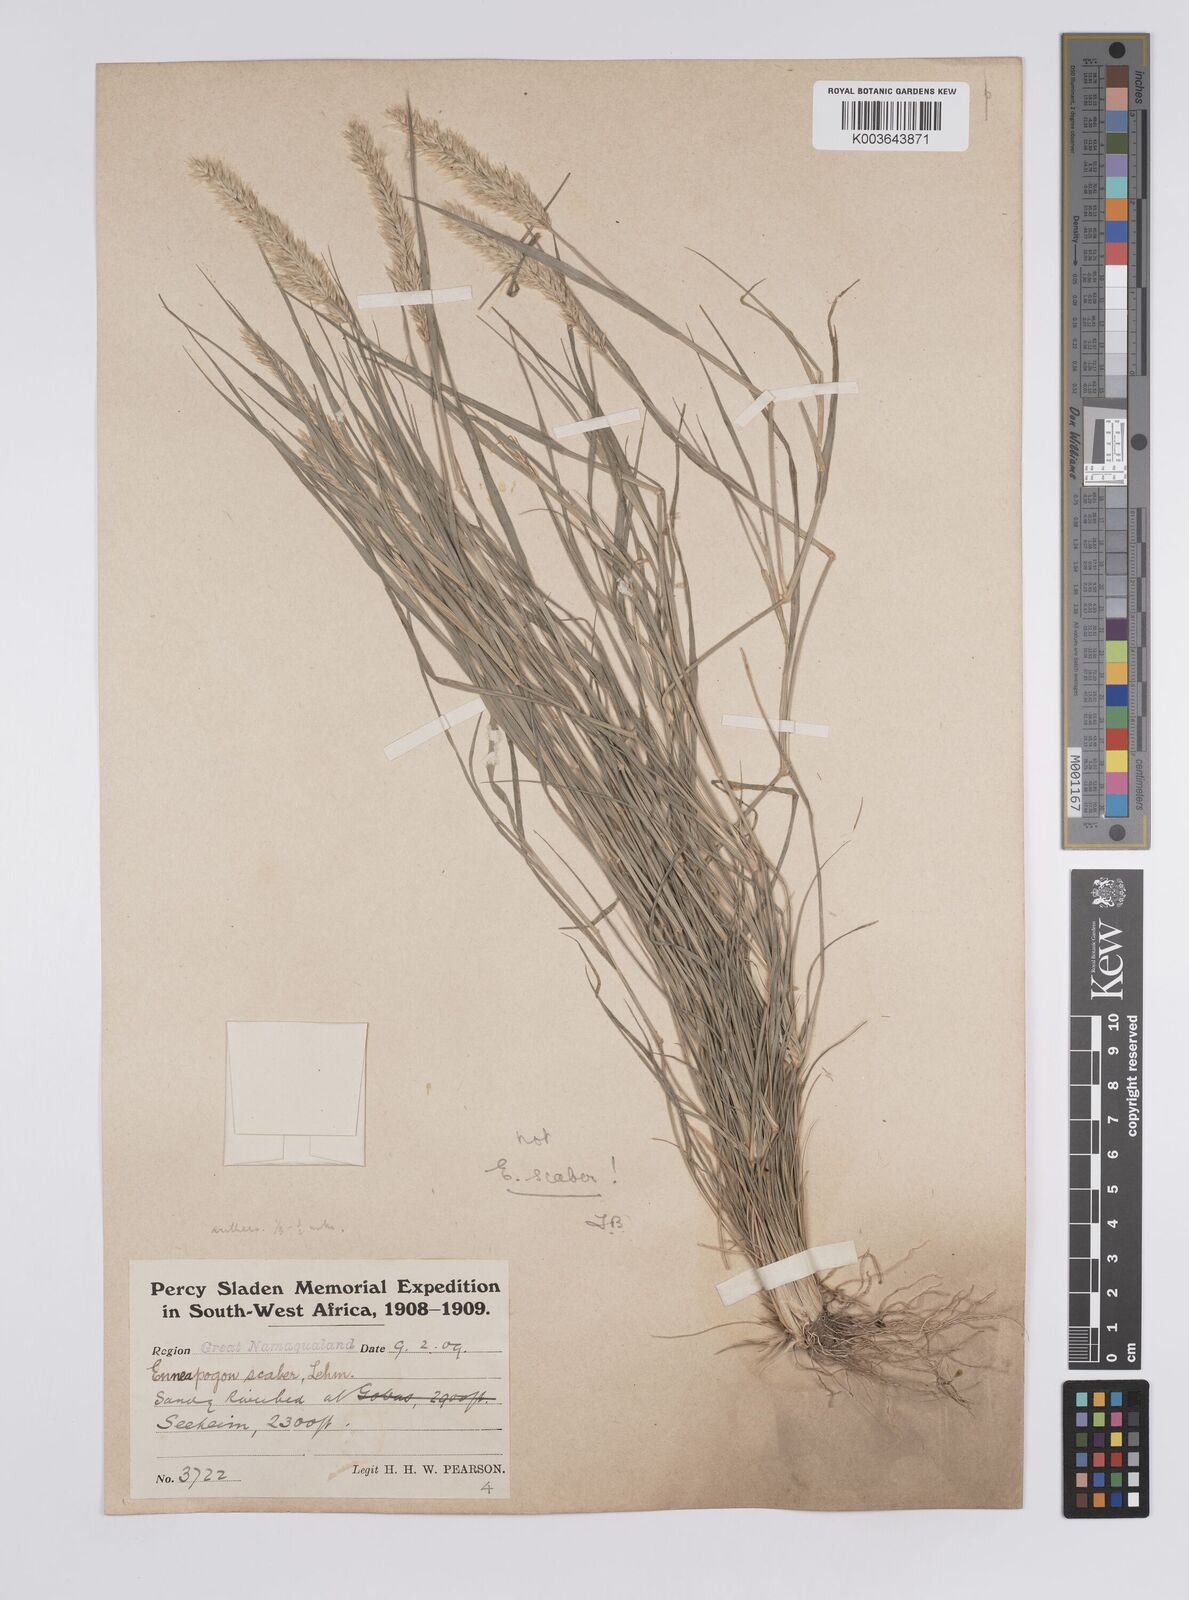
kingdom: Plantae
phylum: Tracheophyta
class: Liliopsida
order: Poales
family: Poaceae
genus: Enneapogon
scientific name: Enneapogon desvauxii
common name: Feather pappus grass
